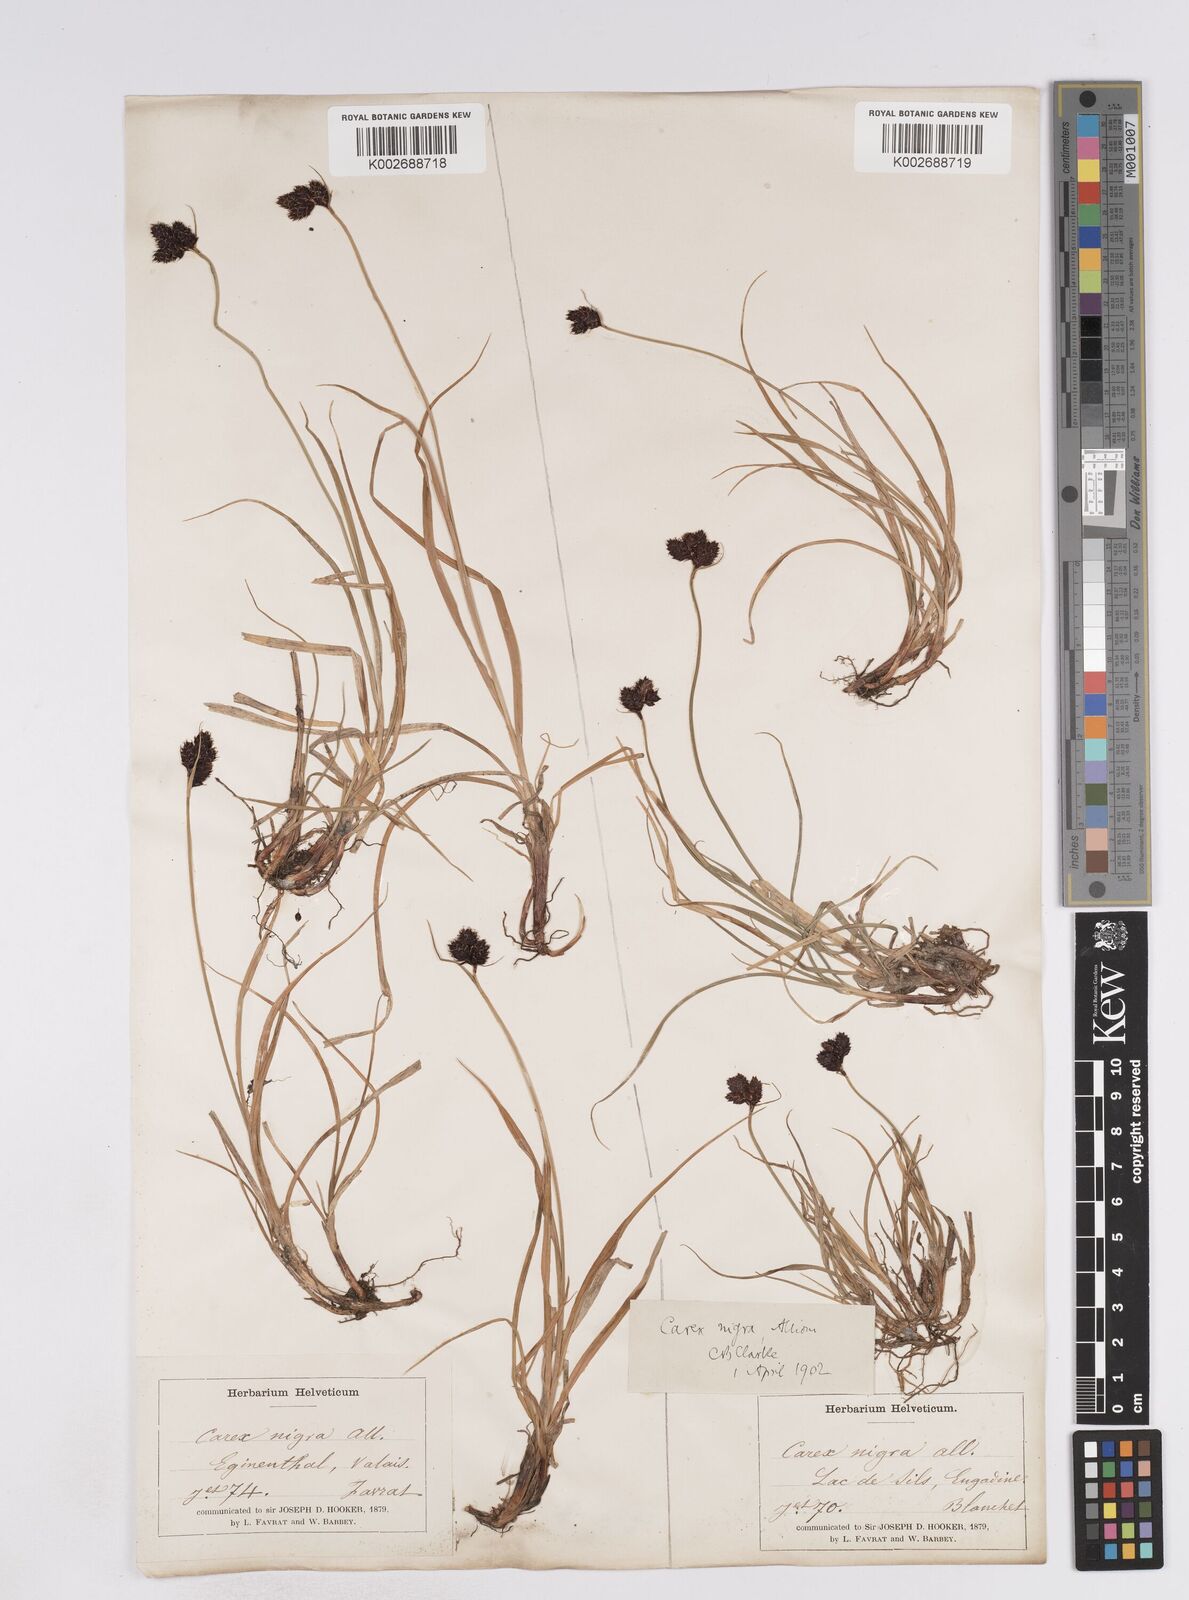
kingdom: Plantae
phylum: Tracheophyta
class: Liliopsida
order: Poales
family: Cyperaceae
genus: Carex
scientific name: Carex parviflora
